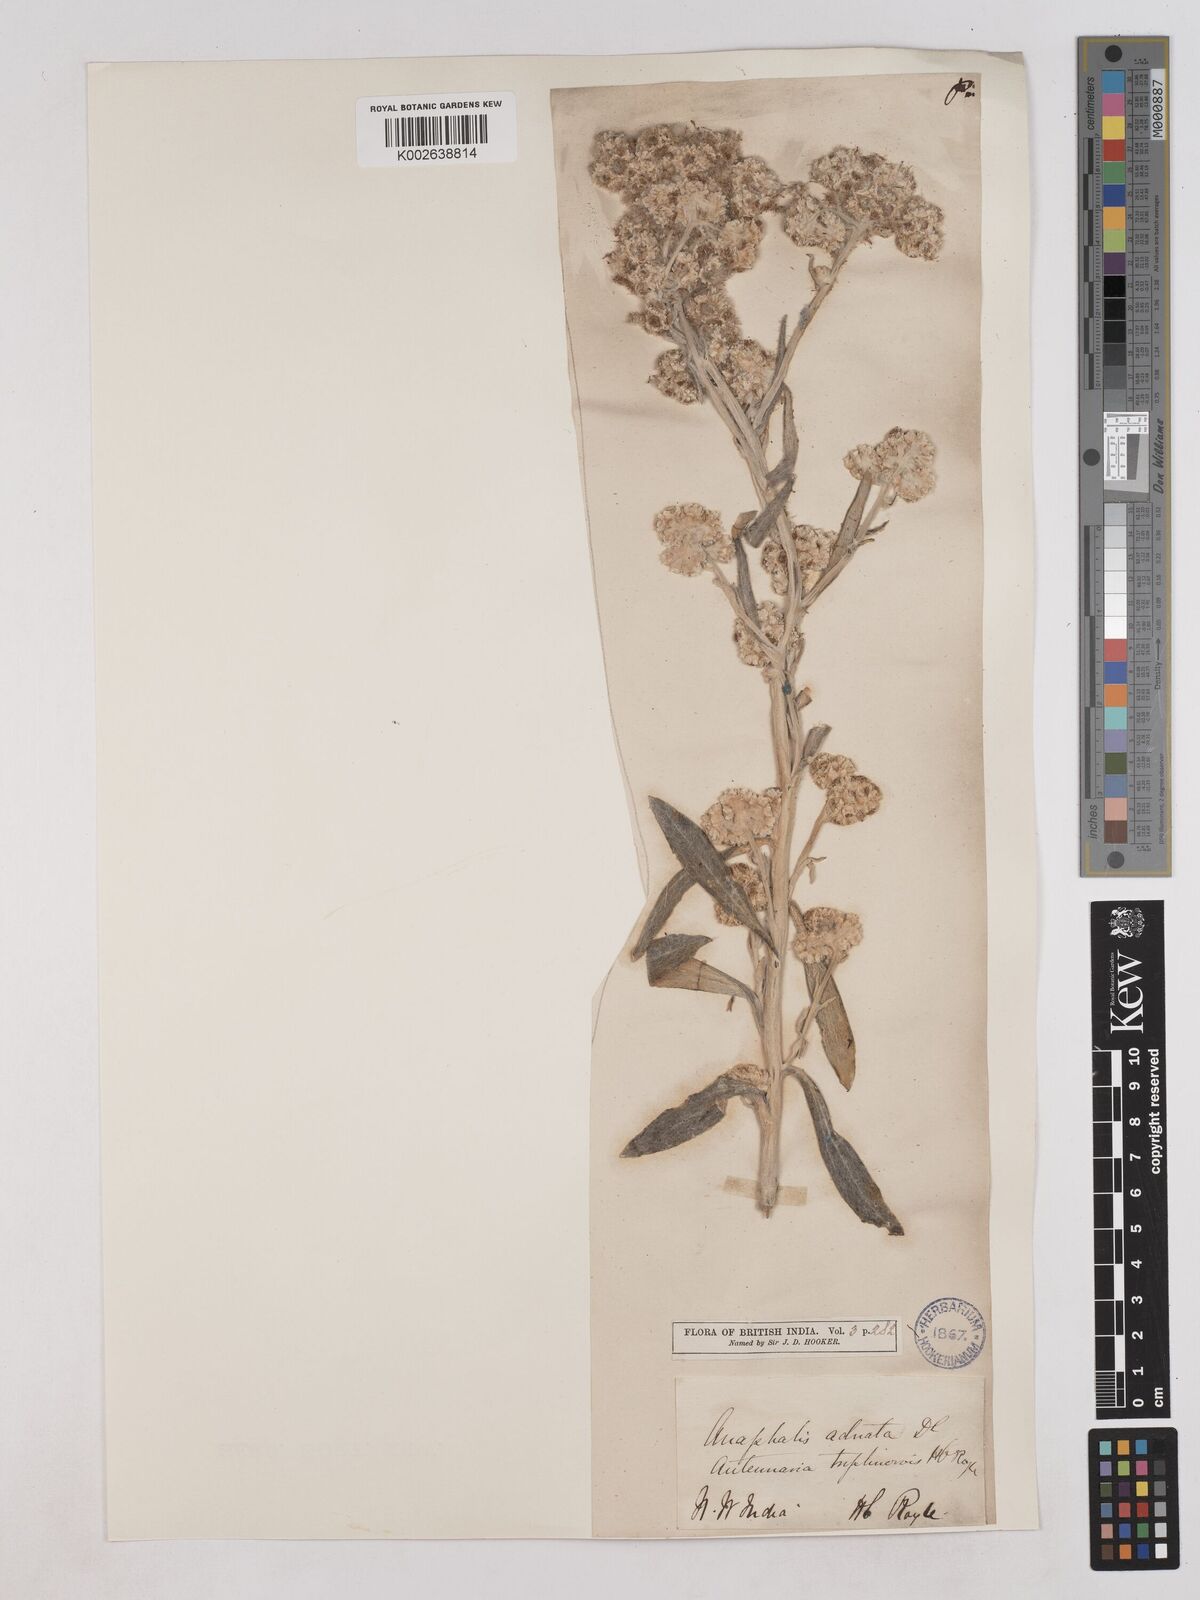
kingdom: Plantae
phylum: Tracheophyta
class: Magnoliopsida
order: Asterales
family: Asteraceae
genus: Pseudognaphalium
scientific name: Pseudognaphalium adnatum
